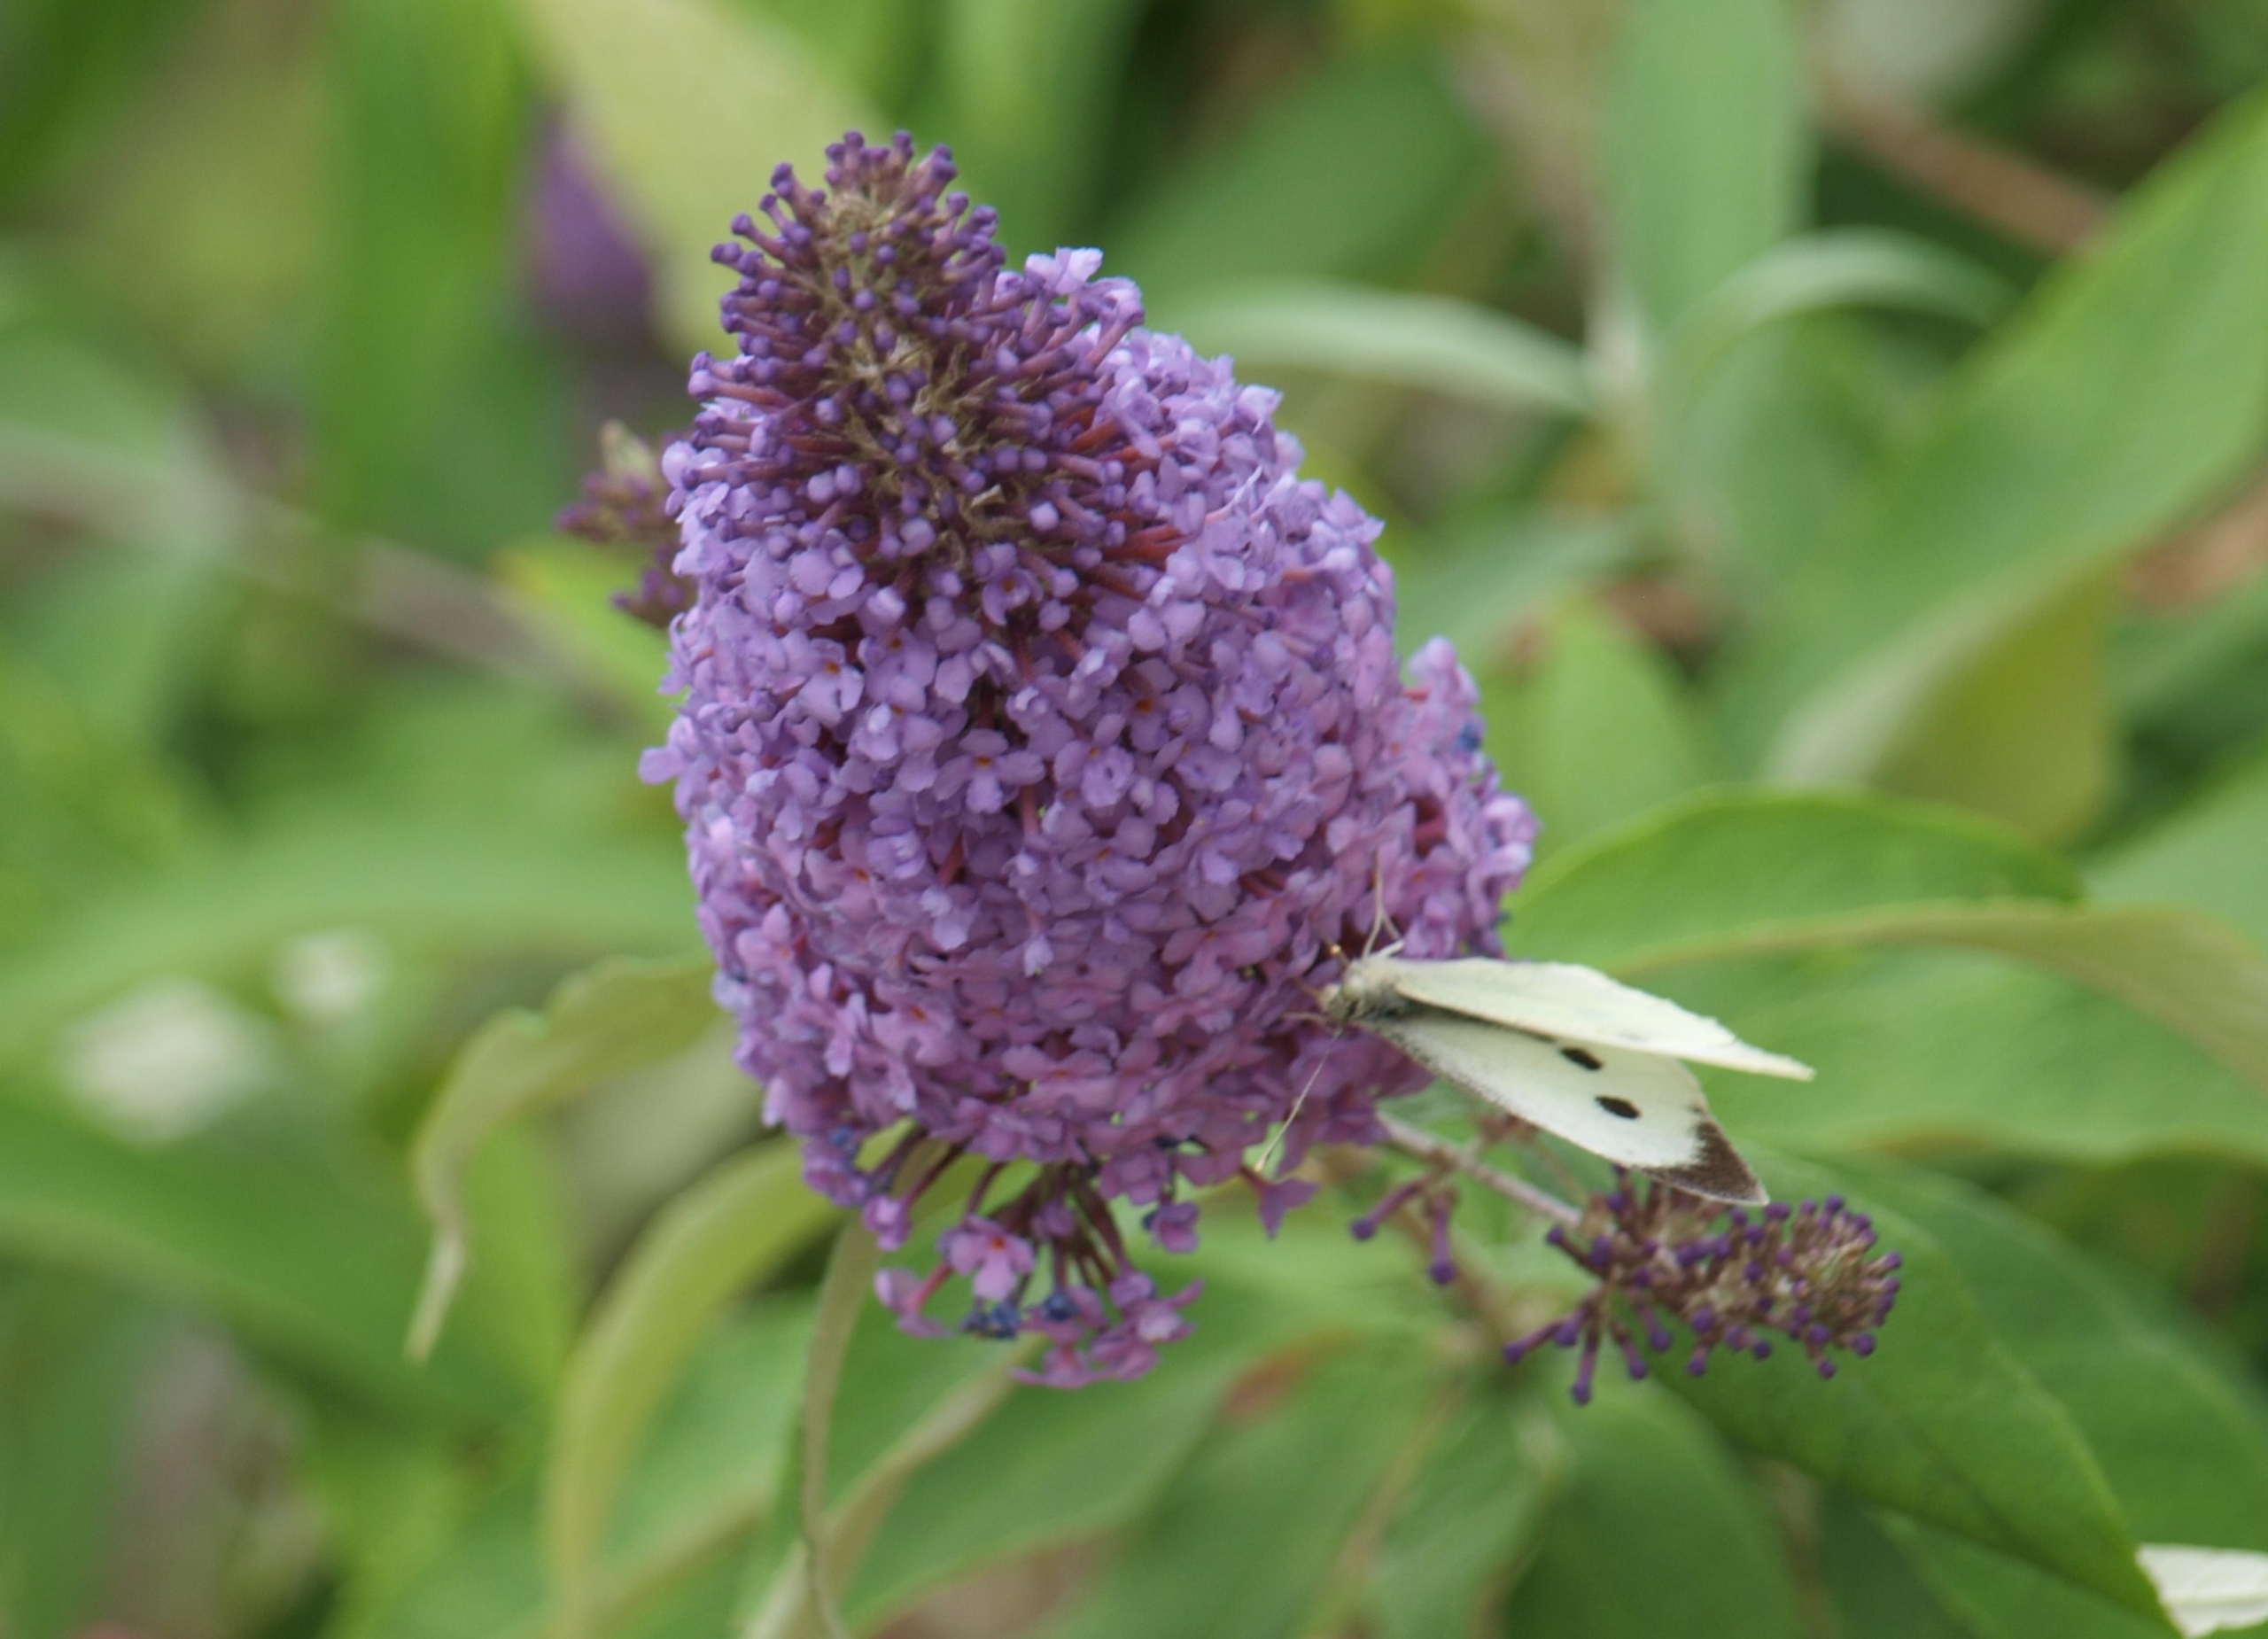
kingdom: Animalia
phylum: Arthropoda
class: Insecta
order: Lepidoptera
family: Pieridae
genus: Pieris
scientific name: Pieris brassicae
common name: Stor kålsommerfugl
